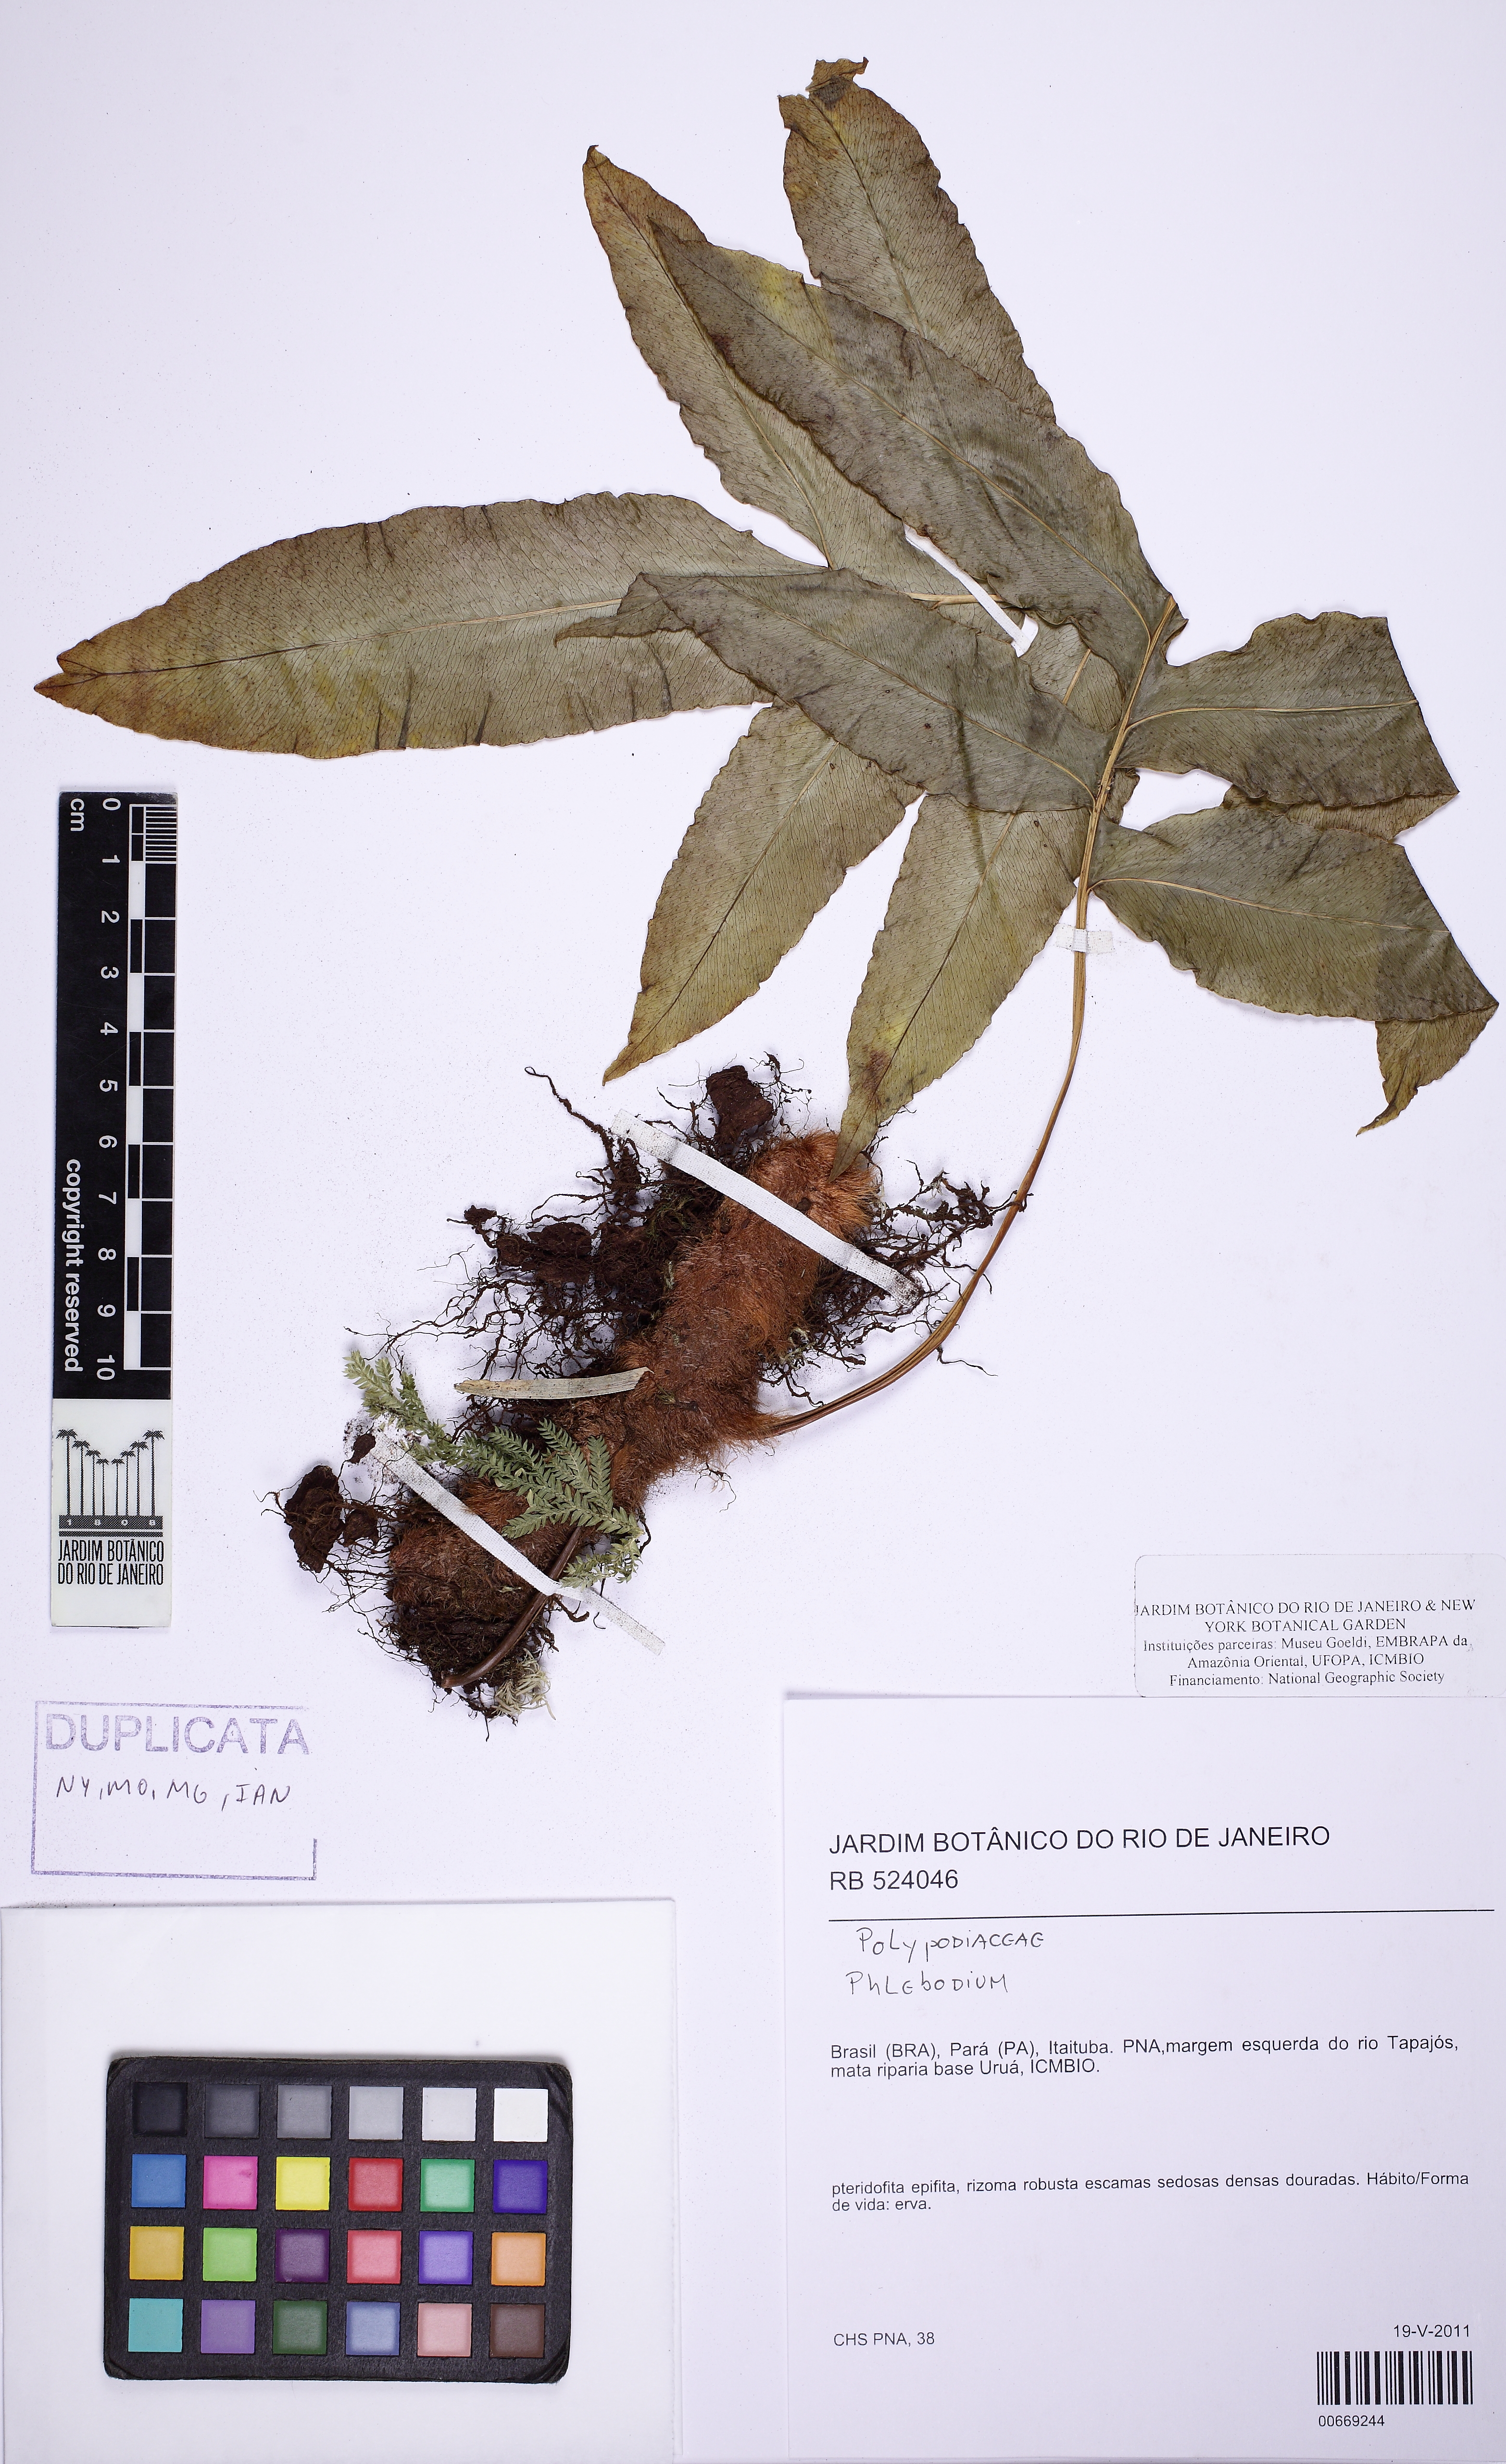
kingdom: Plantae
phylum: Tracheophyta
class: Polypodiopsida
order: Polypodiales
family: Polypodiaceae
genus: Phlebodium
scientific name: Phlebodium decumanum
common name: Golden polypod
